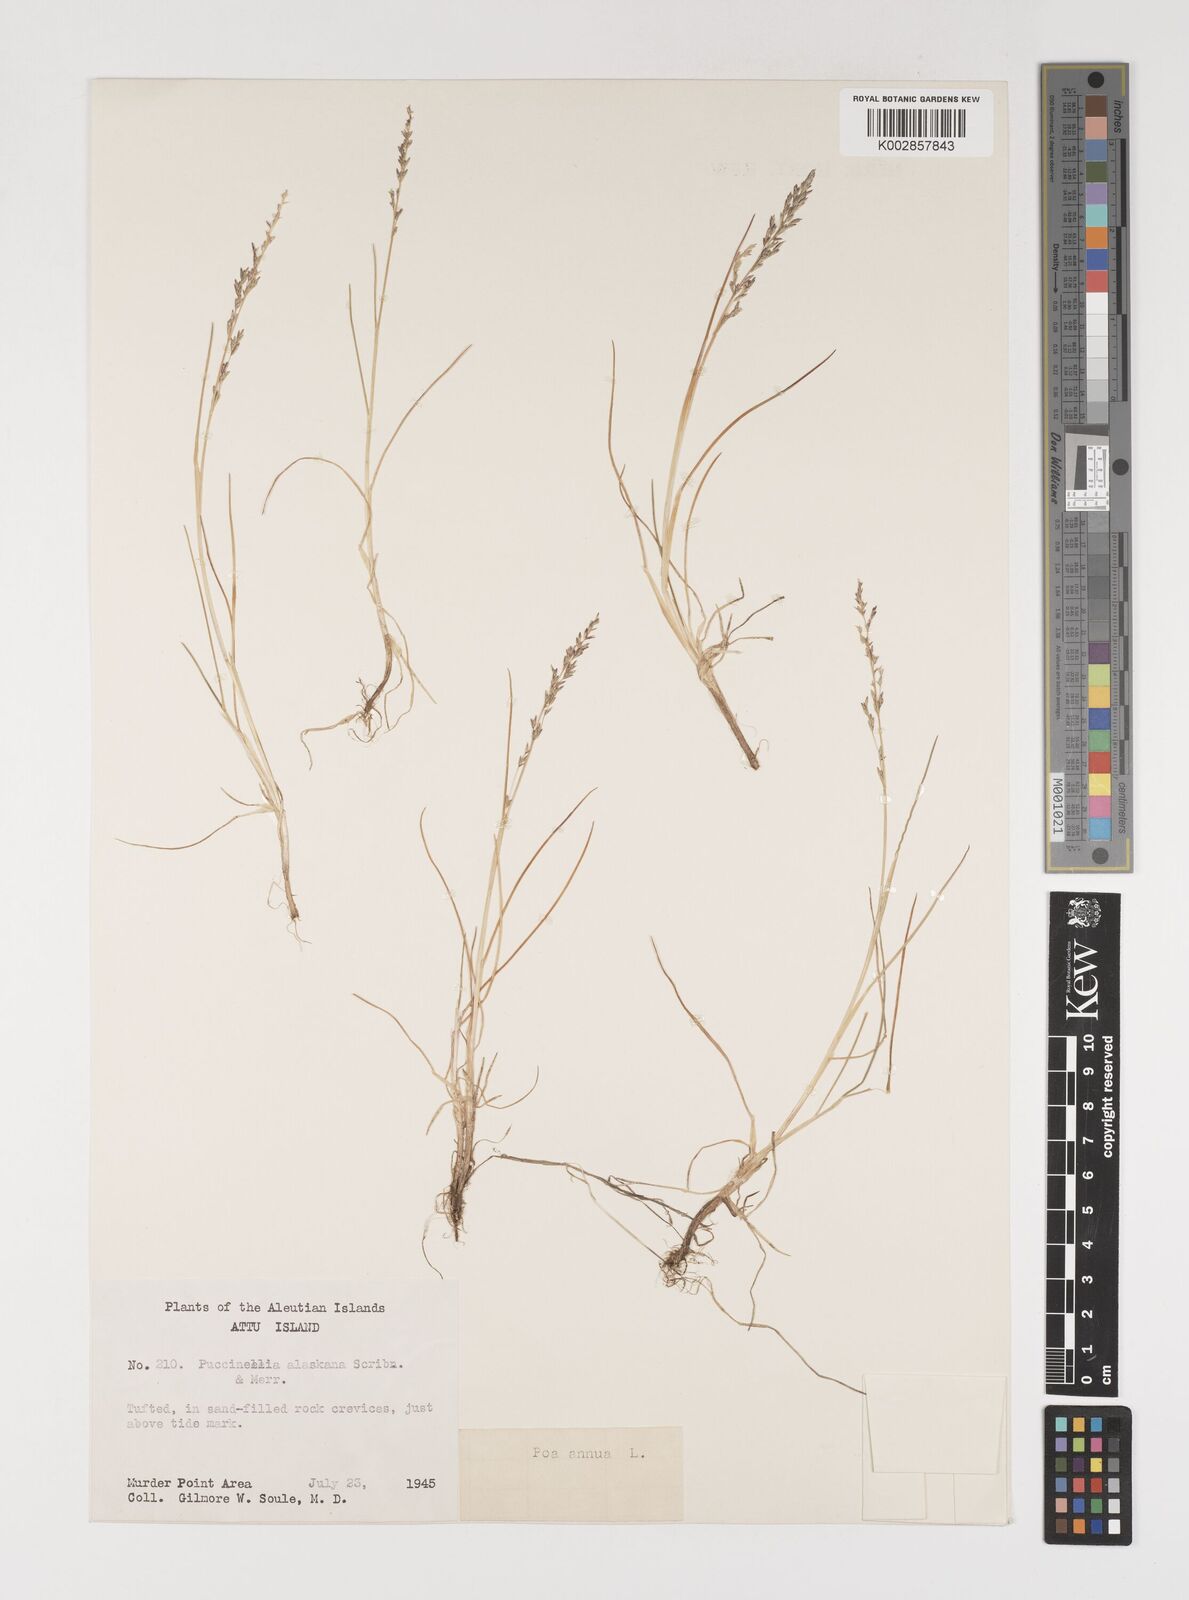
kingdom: Plantae
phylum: Tracheophyta
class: Liliopsida
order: Poales
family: Poaceae
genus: Puccinellia
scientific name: Puccinellia tenella
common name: Tundra alkaligrass
